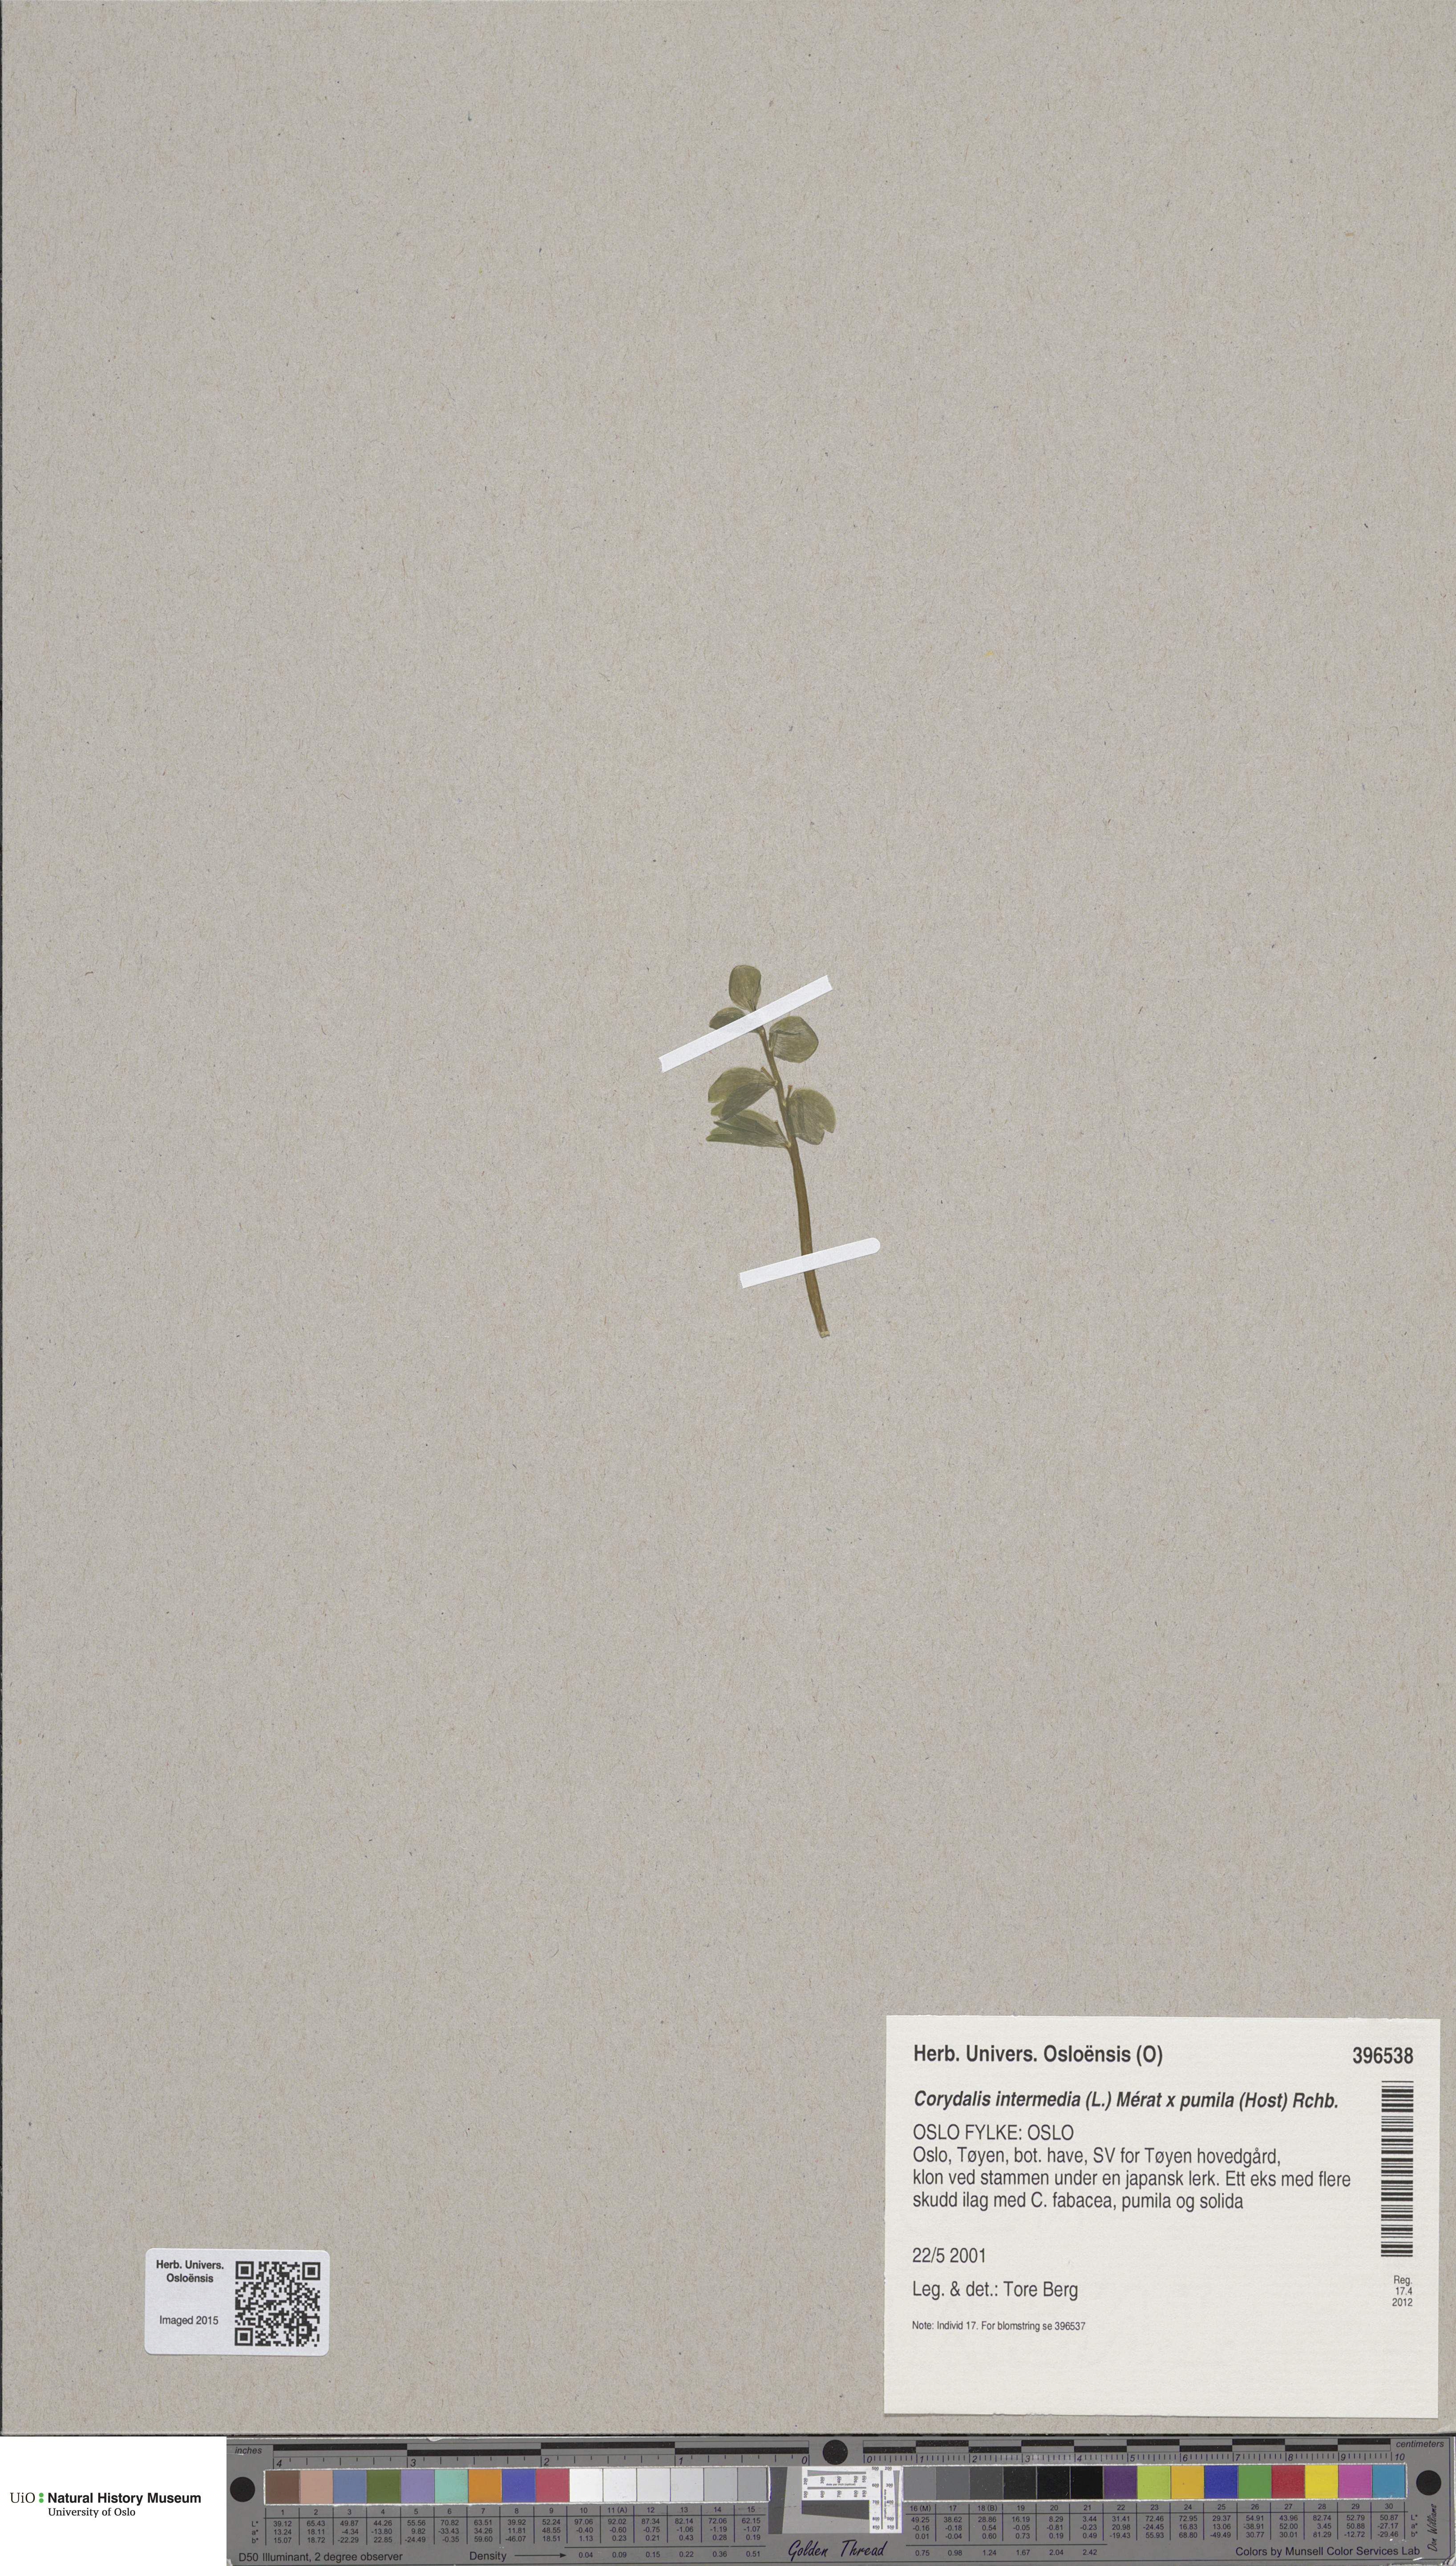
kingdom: Plantae
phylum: Tracheophyta
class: Magnoliopsida
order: Ranunculales
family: Papaveraceae
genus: Corydalis
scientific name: Corydalis
